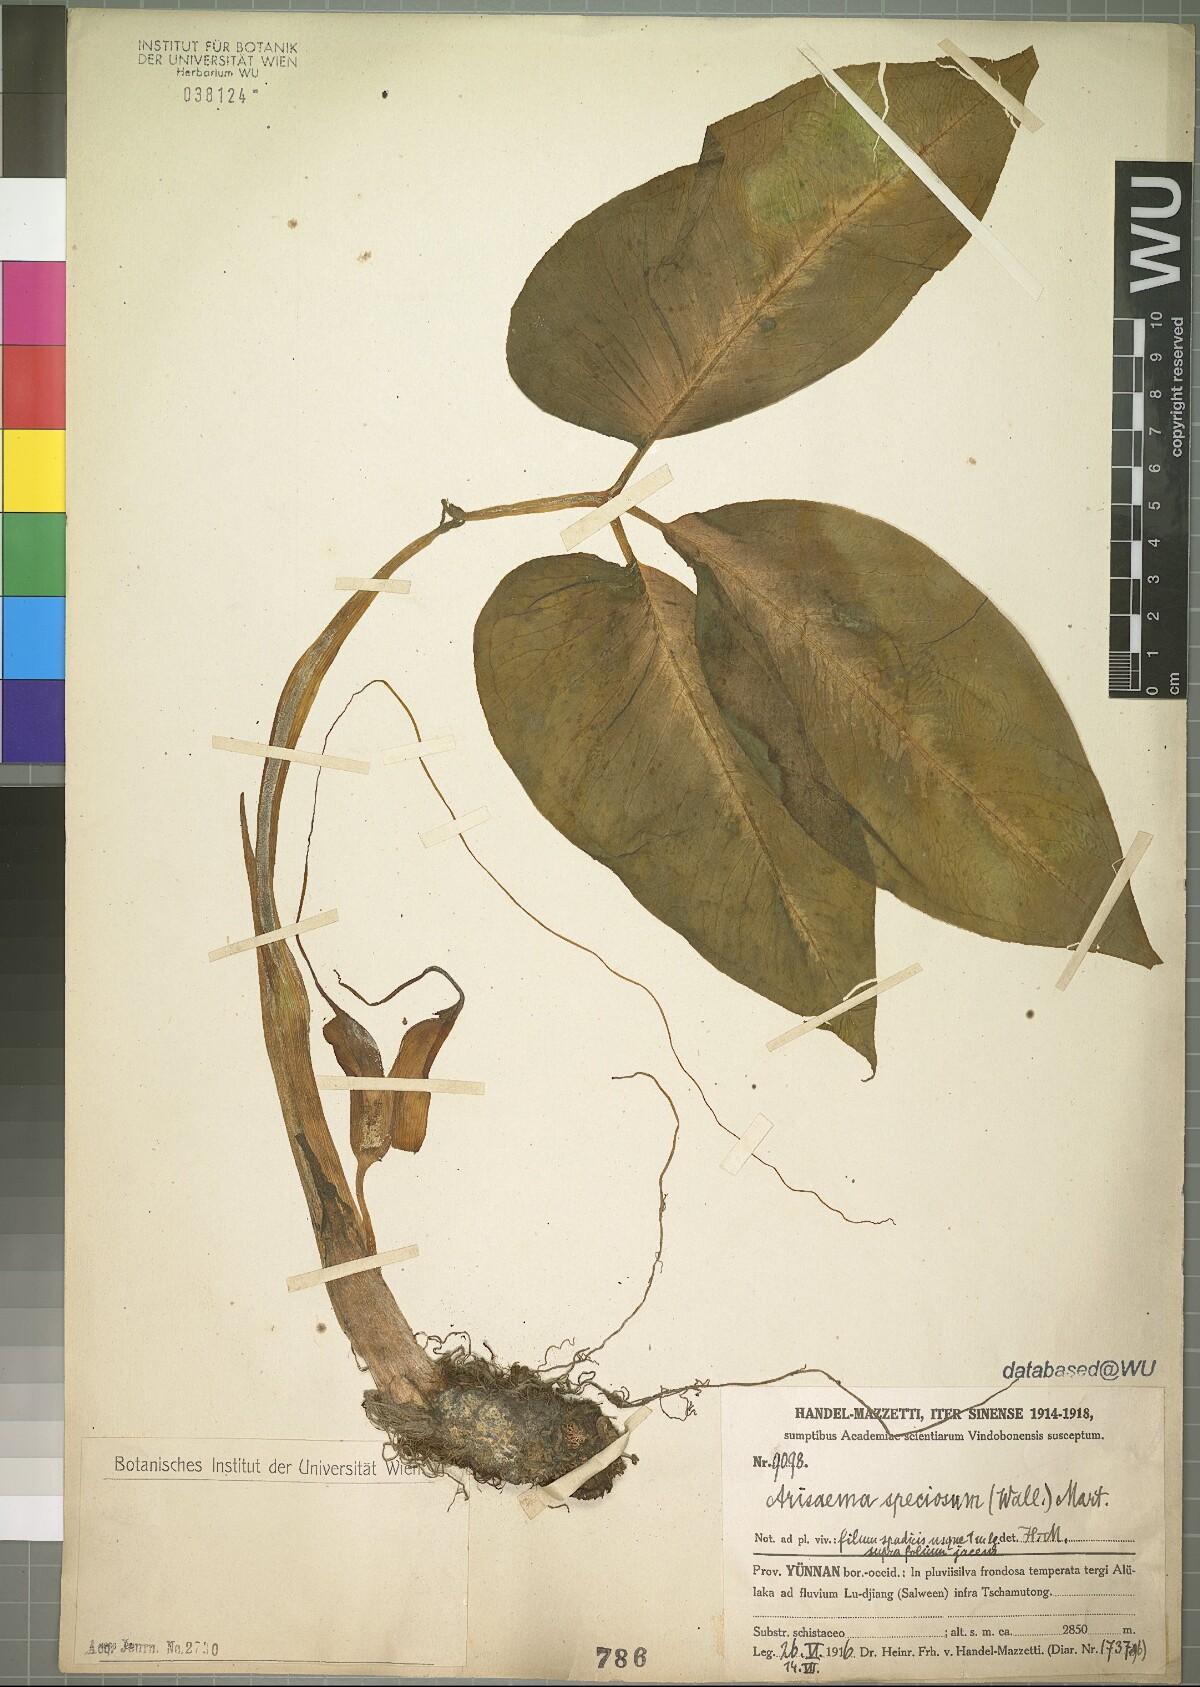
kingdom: Plantae
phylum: Tracheophyta
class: Liliopsida
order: Alismatales
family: Araceae
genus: Arisaema
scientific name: Arisaema speciosum
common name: Showy cobra-lily
